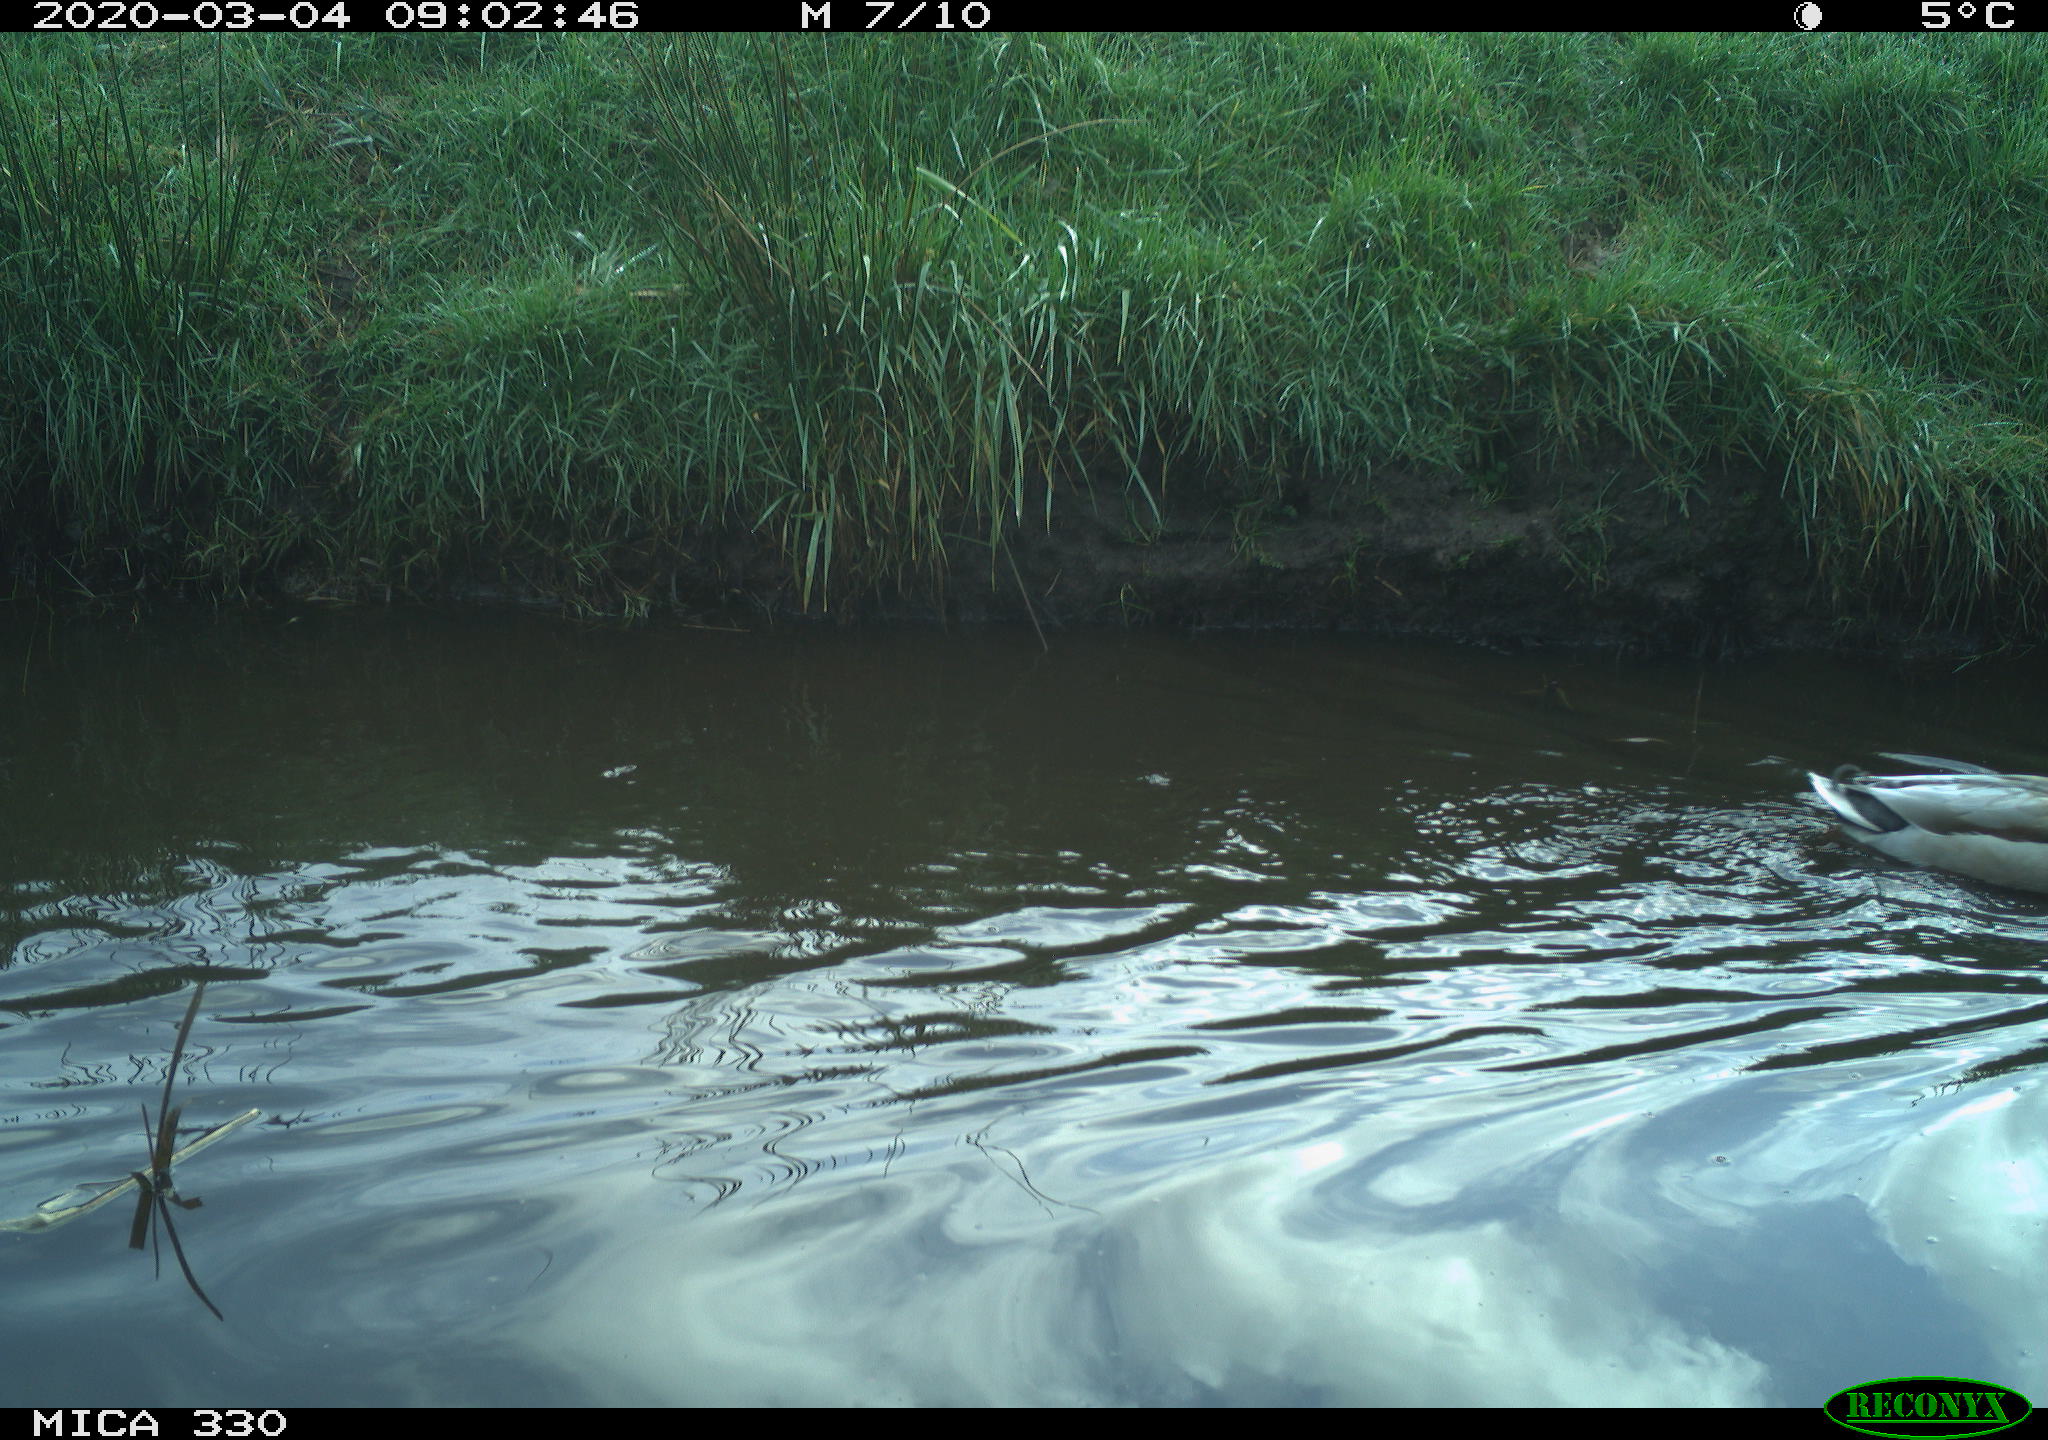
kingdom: Animalia
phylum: Chordata
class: Aves
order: Anseriformes
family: Anatidae
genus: Anas
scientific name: Anas platyrhynchos
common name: Mallard
